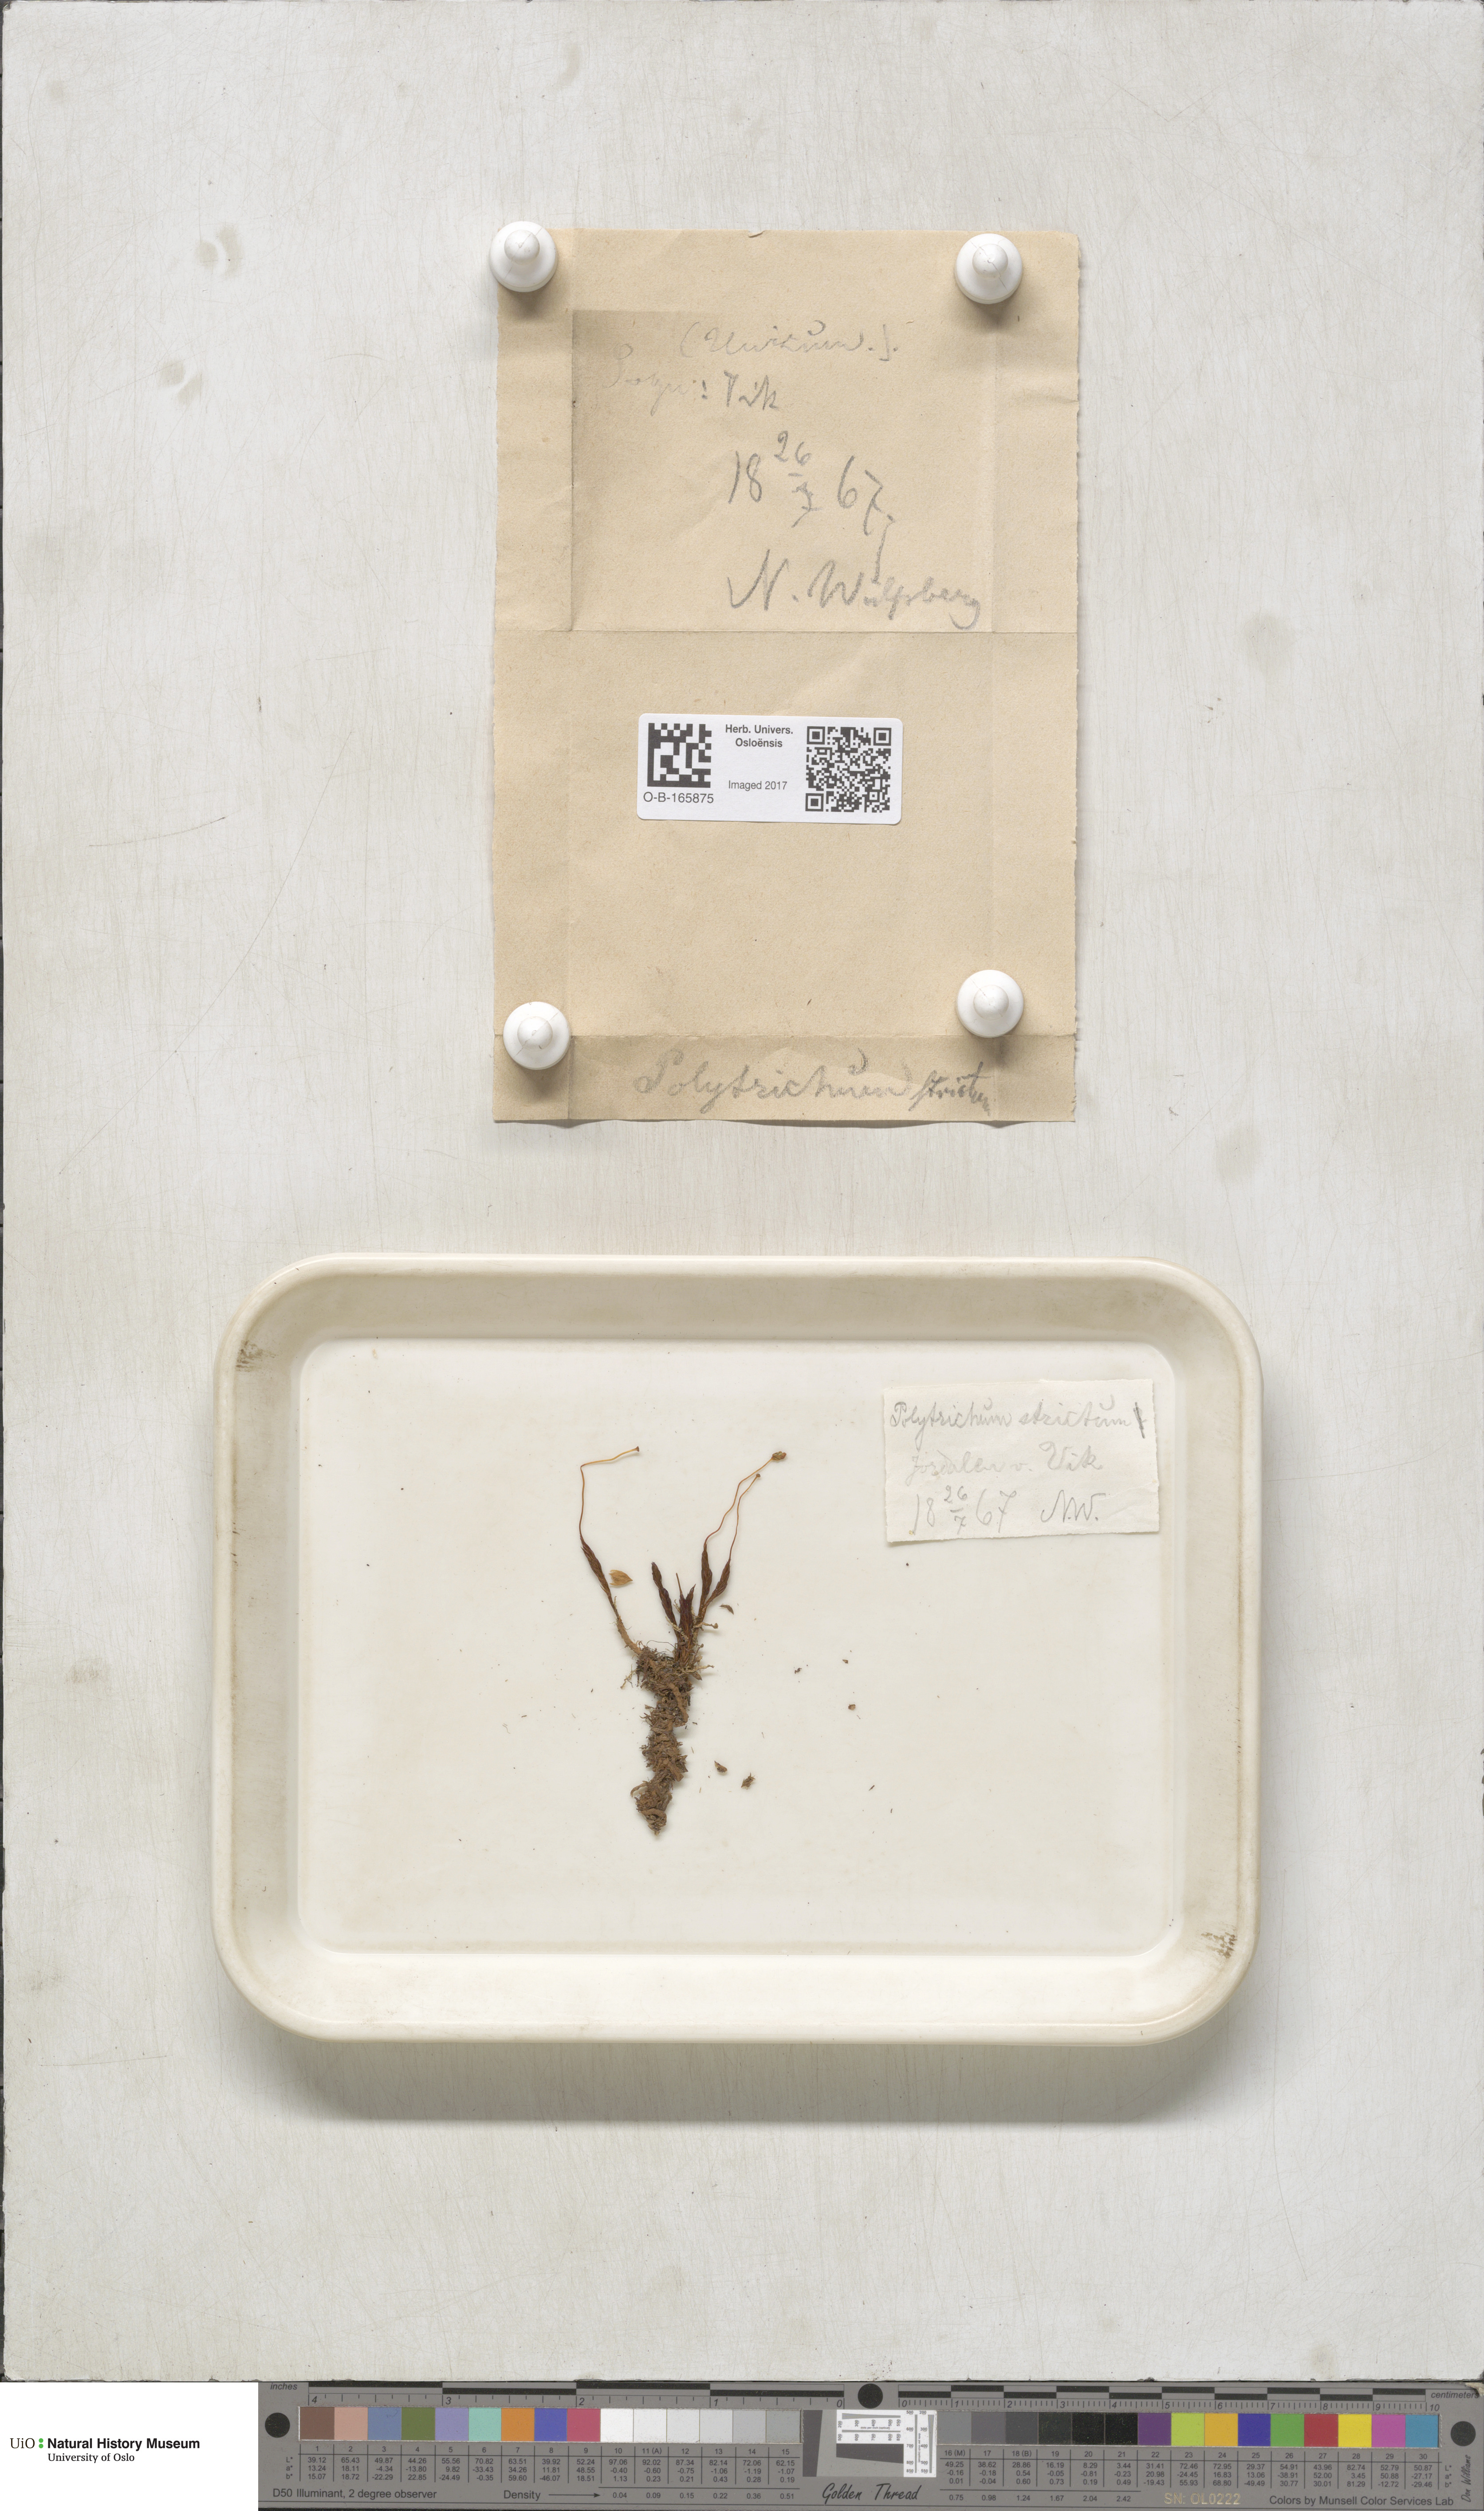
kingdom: Plantae
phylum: Bryophyta
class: Polytrichopsida
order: Polytrichales
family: Polytrichaceae
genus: Polytrichum
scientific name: Polytrichum strictum
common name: Bog haircap moss
